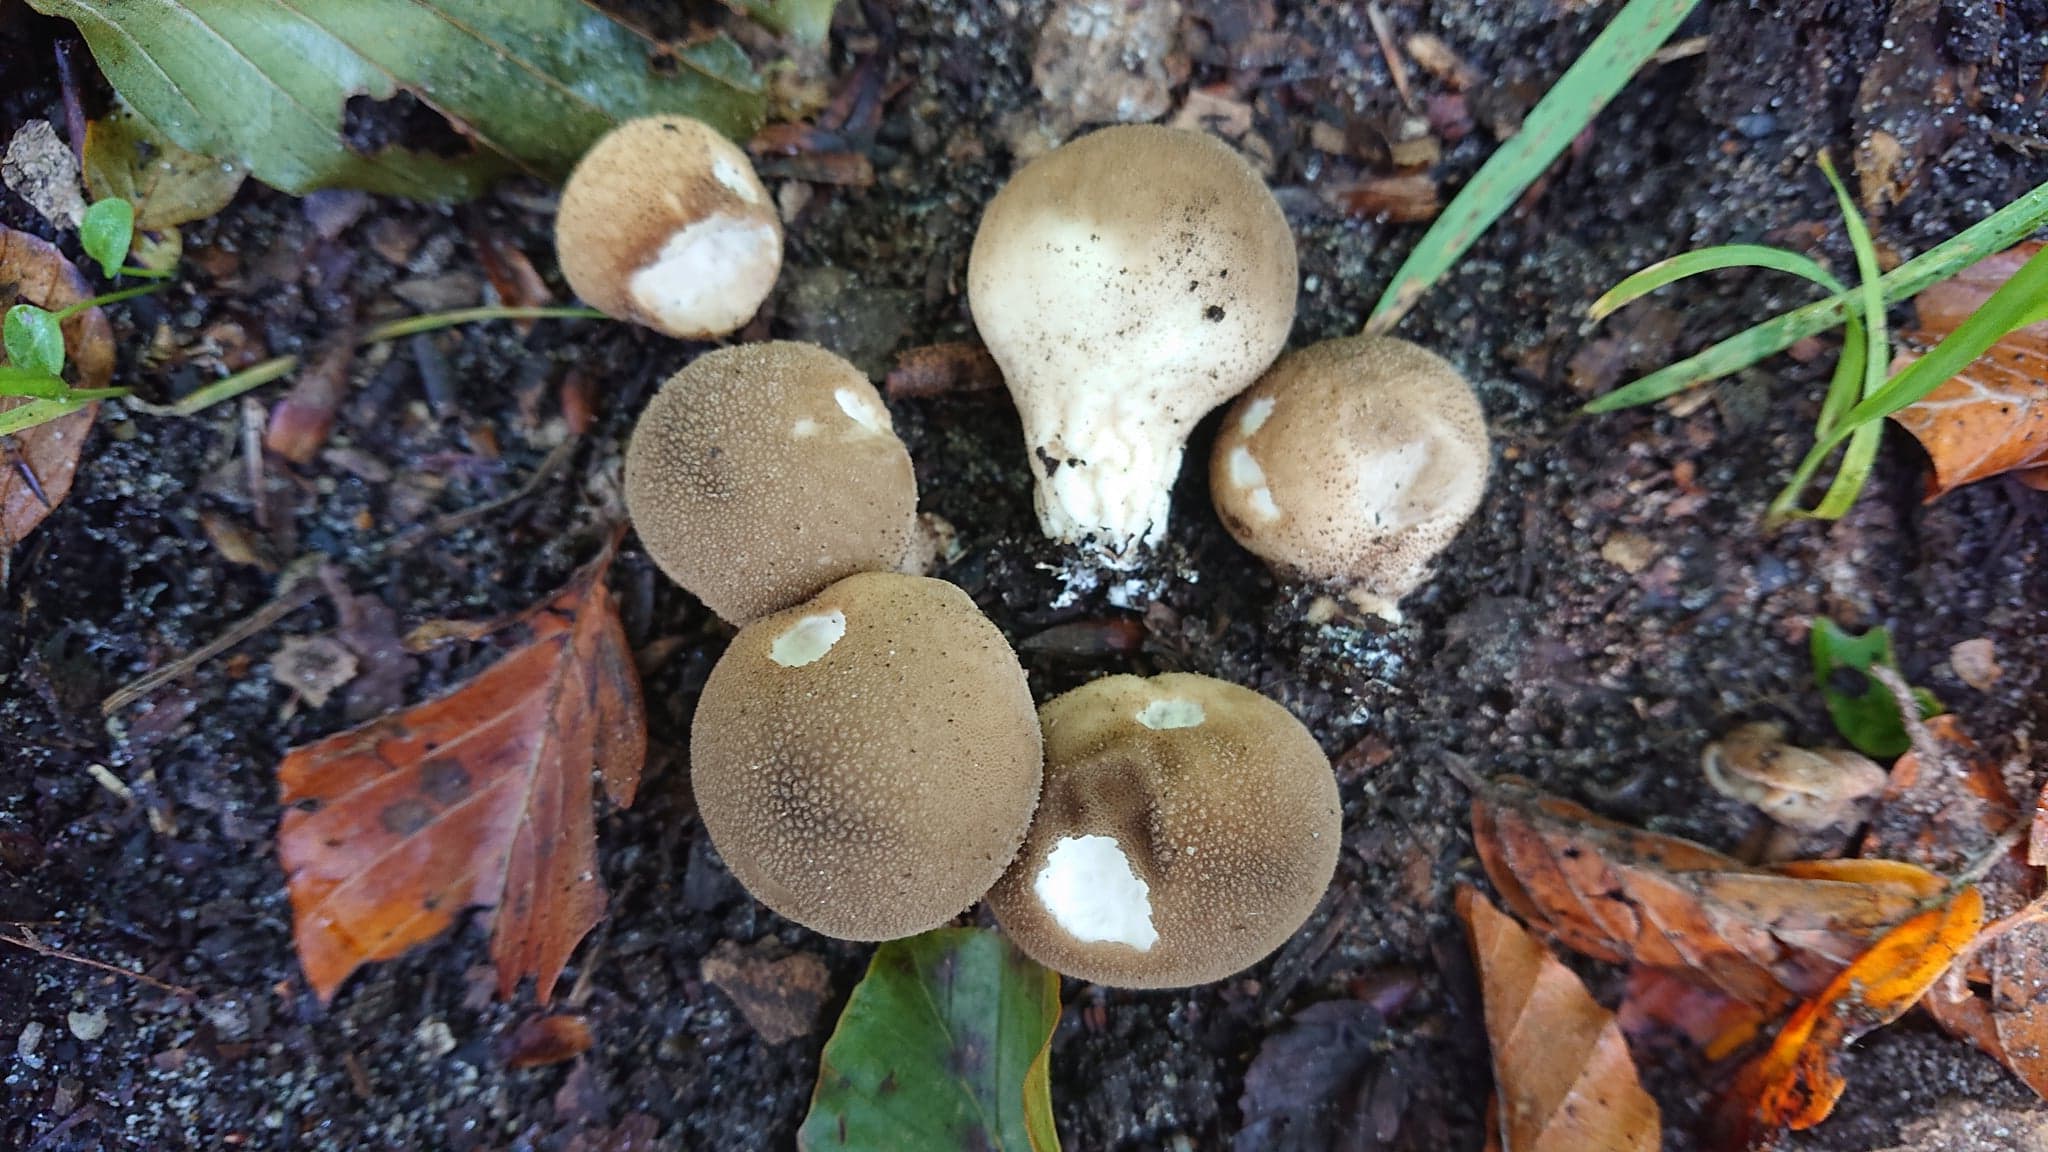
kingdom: Fungi
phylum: Basidiomycota
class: Agaricomycetes
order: Agaricales
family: Agaricaceae
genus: Lycoperdon
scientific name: Lycoperdon
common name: støvbold
